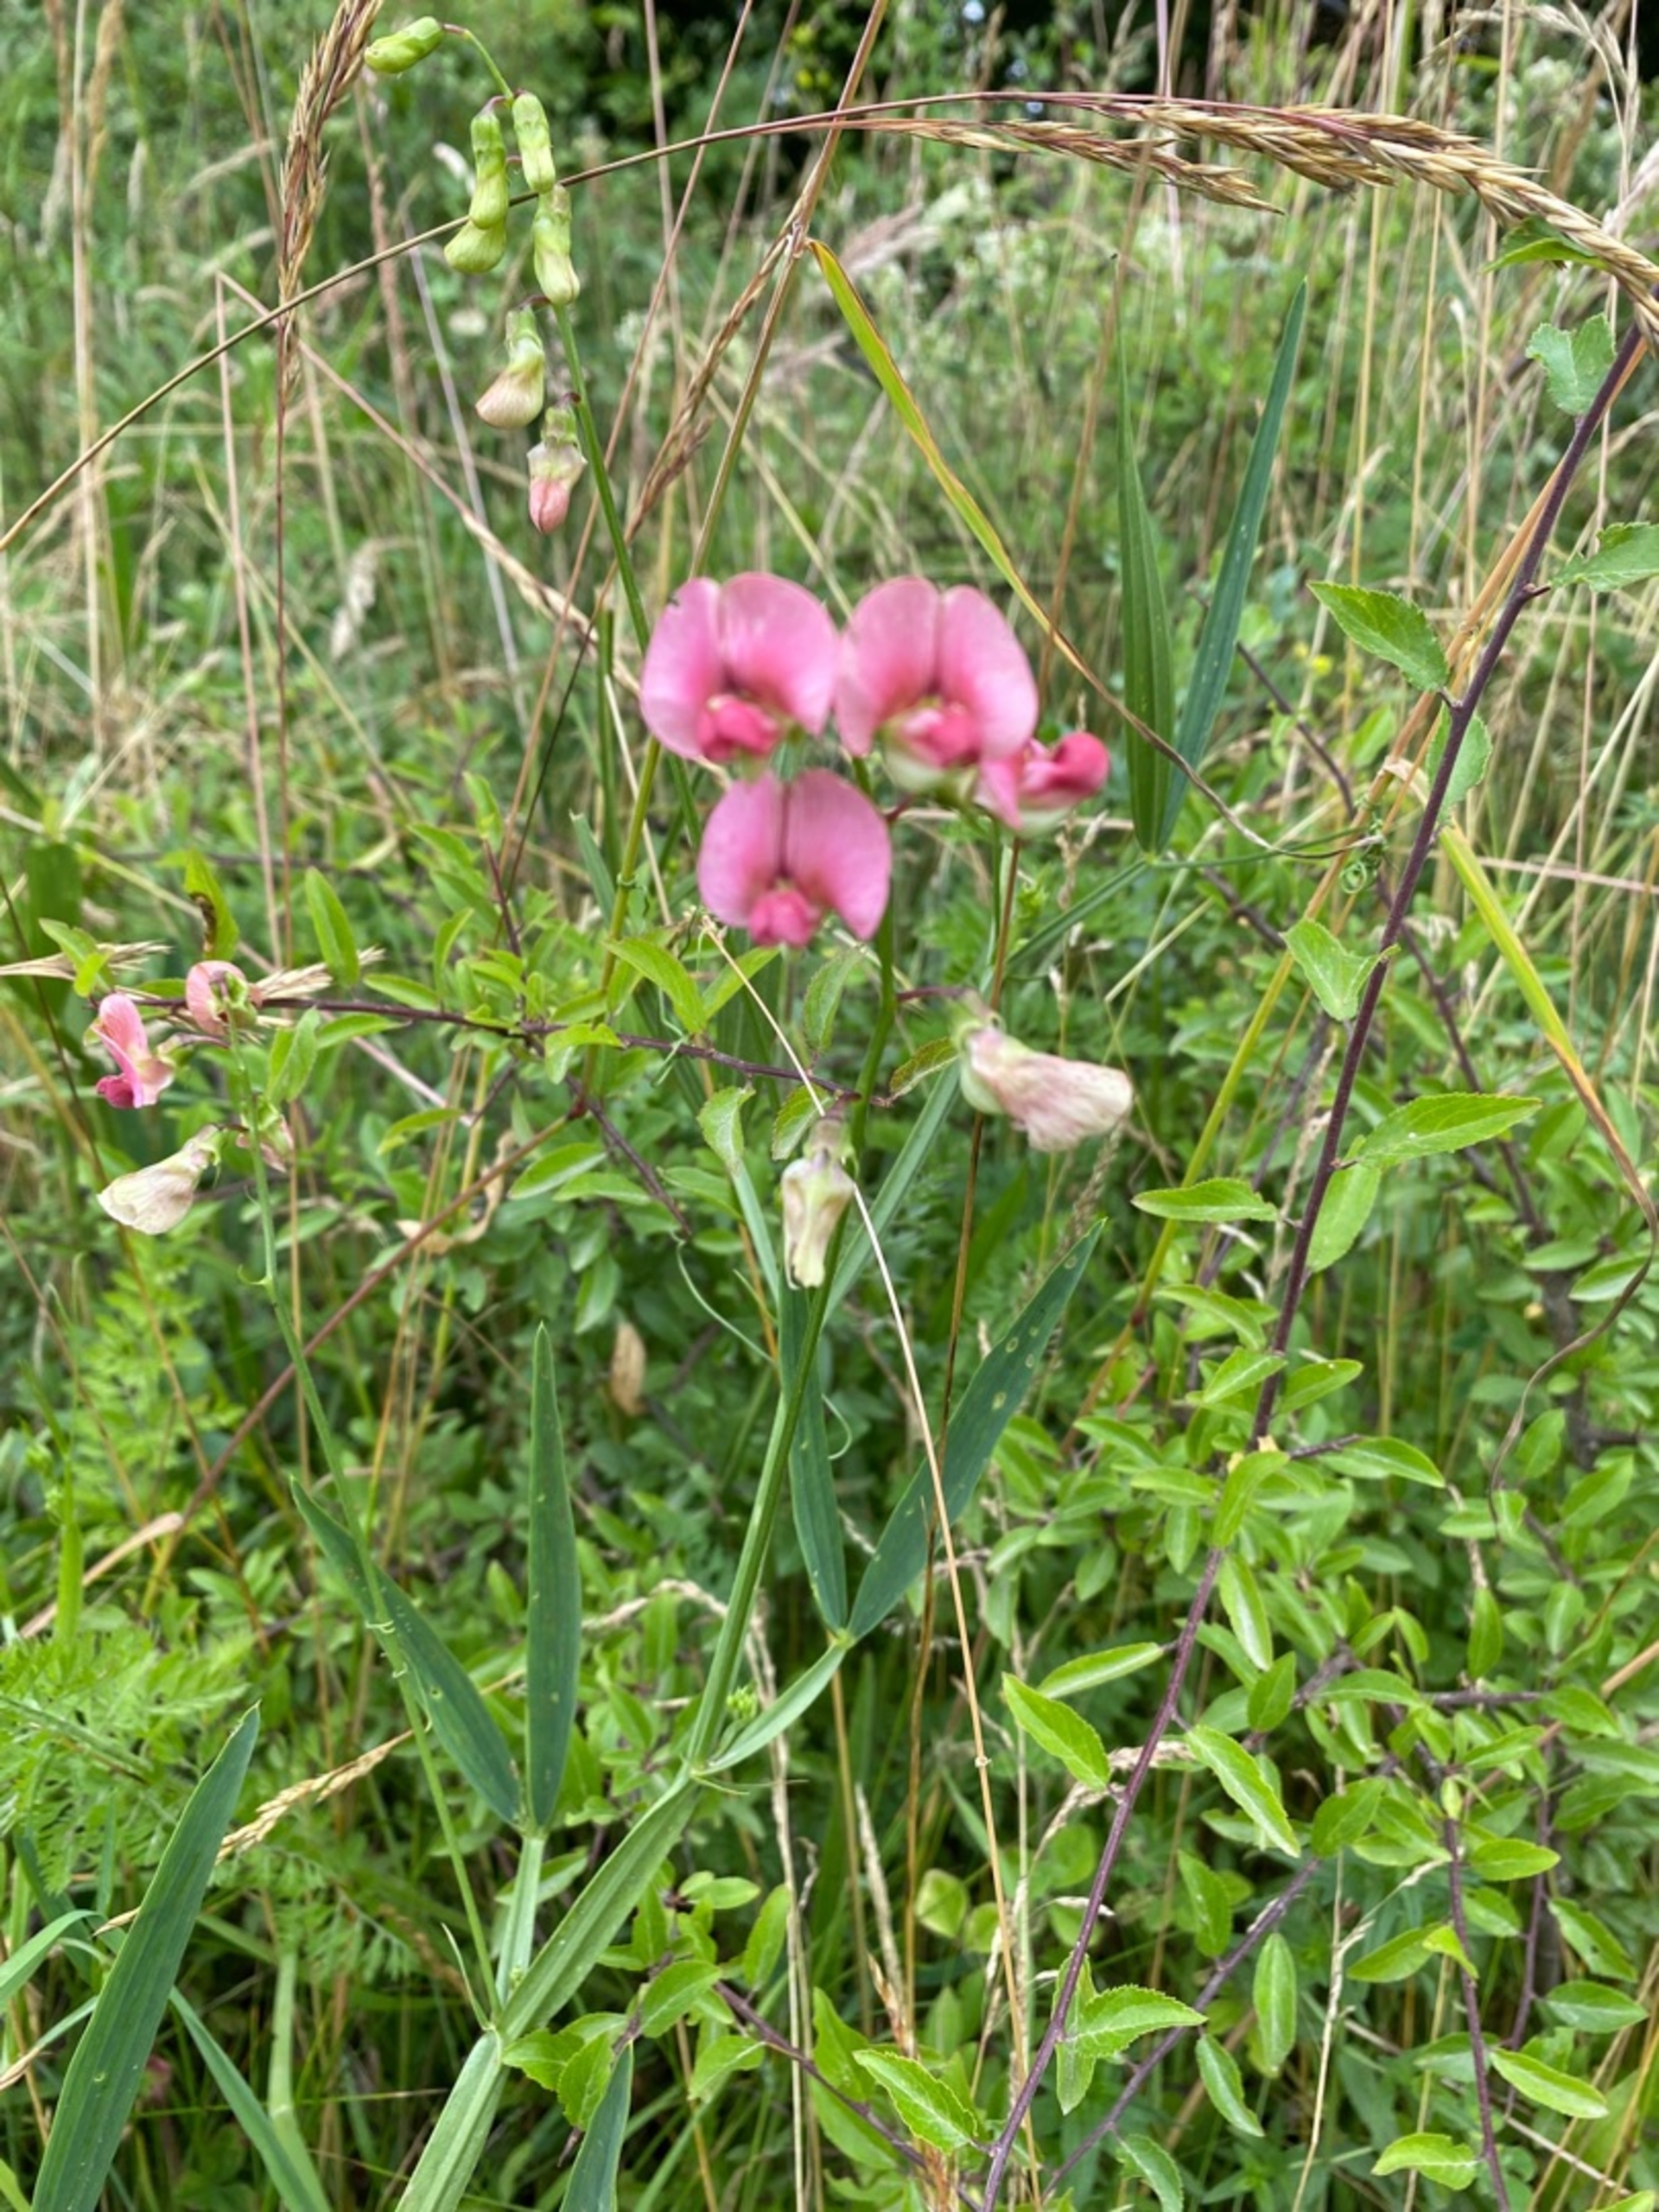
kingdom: Plantae
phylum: Tracheophyta
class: Magnoliopsida
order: Fabales
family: Fabaceae
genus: Lathyrus
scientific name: Lathyrus sylvestris
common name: Skov-fladbælg
